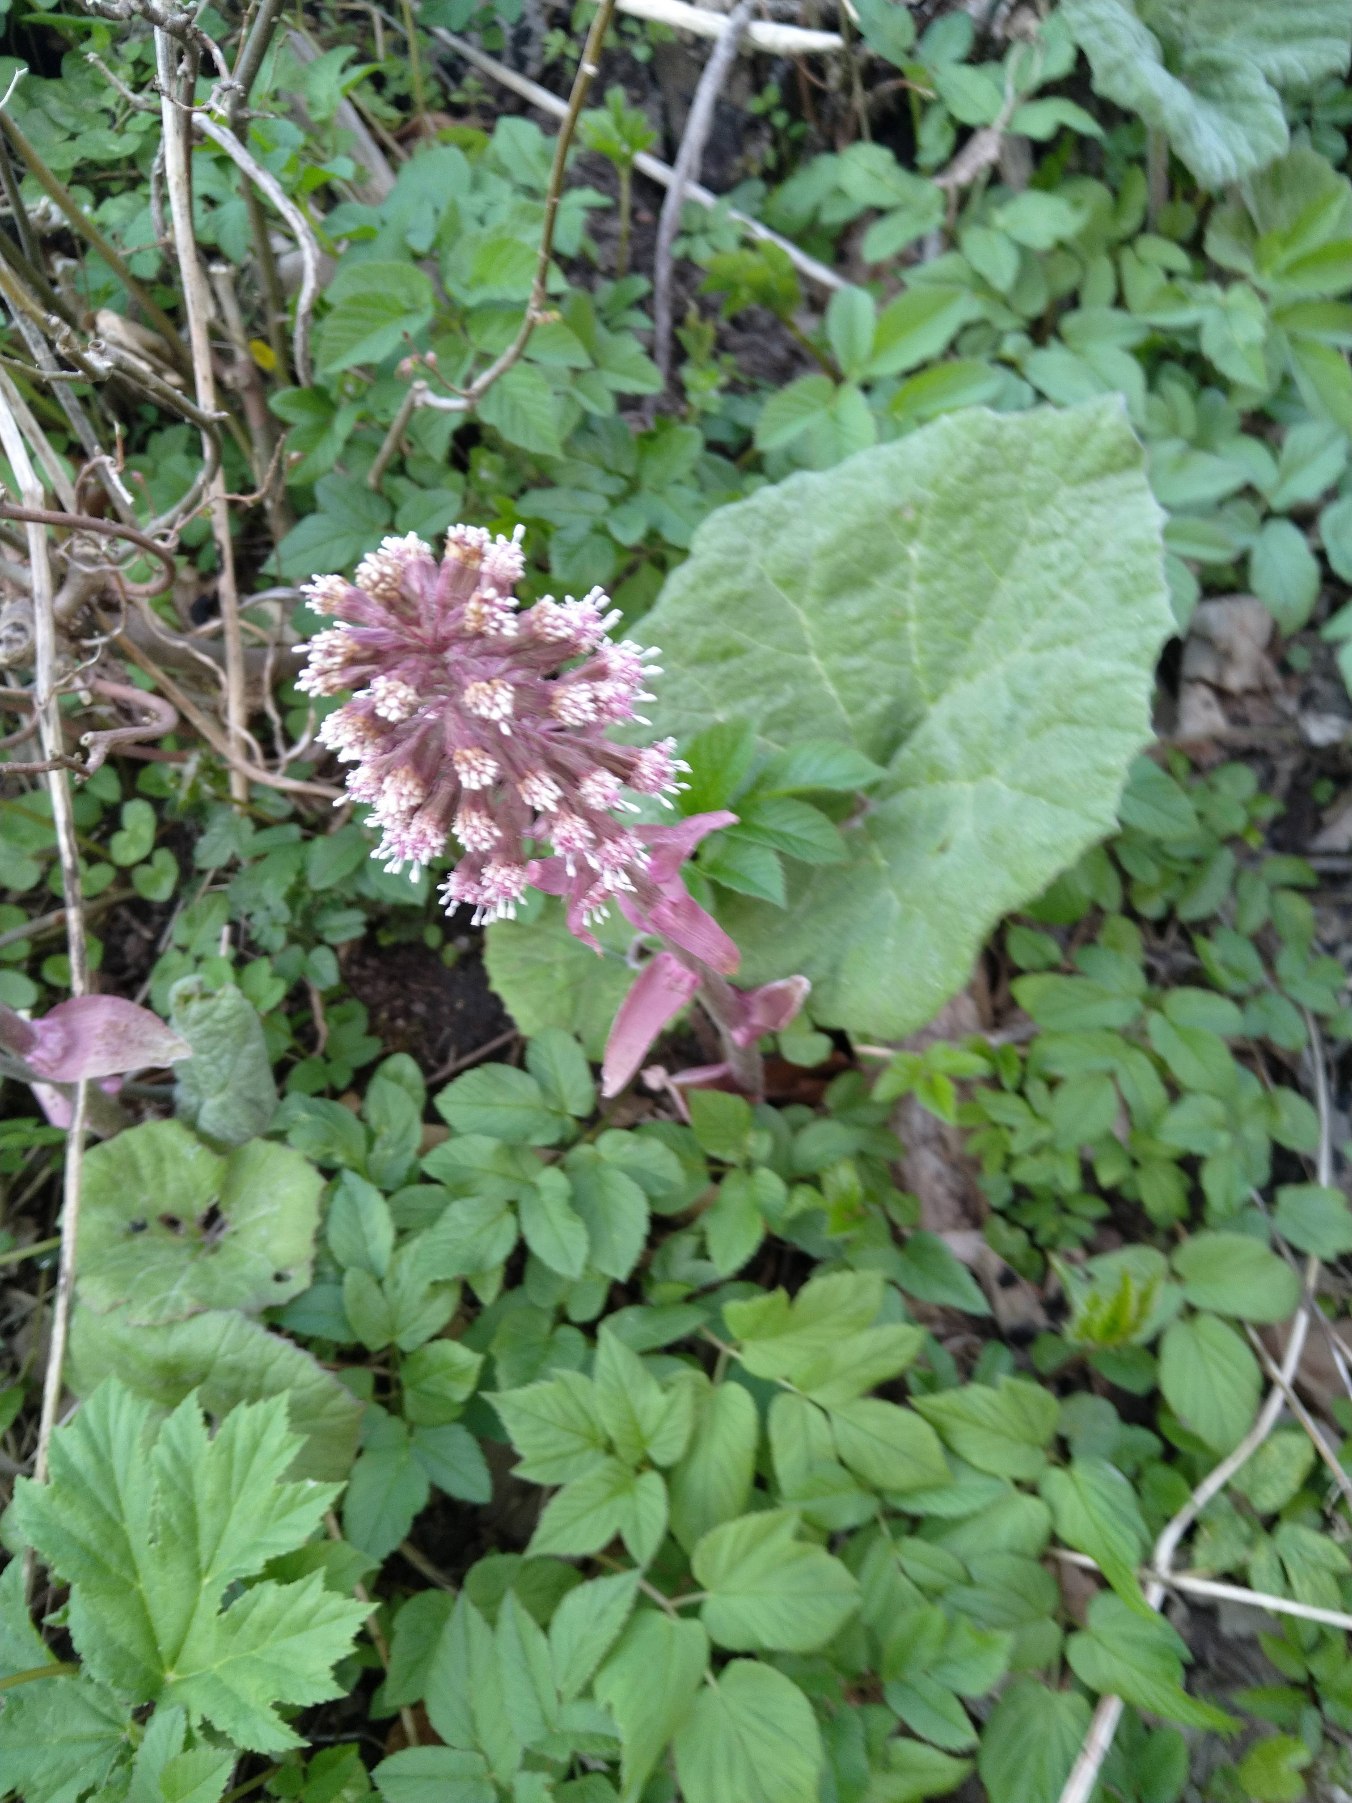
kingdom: Plantae
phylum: Tracheophyta
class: Magnoliopsida
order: Asterales
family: Asteraceae
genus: Petasites
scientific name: Petasites hybridus
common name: Rød hestehov
